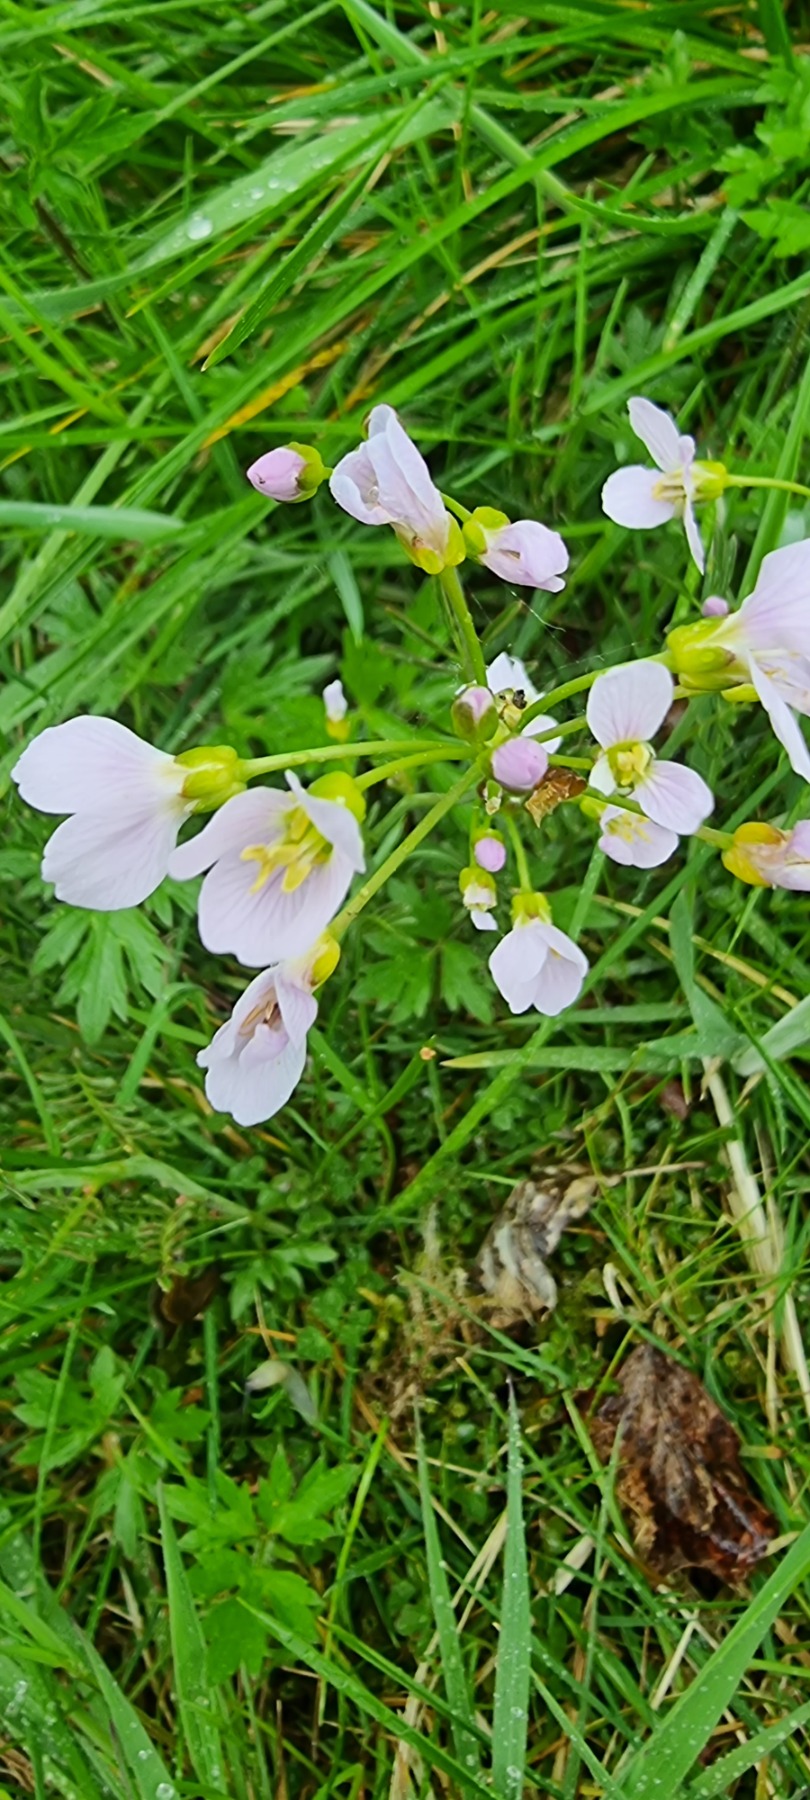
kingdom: Plantae
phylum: Tracheophyta
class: Magnoliopsida
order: Brassicales
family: Brassicaceae
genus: Cardamine
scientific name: Cardamine pratensis
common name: Engkarse
